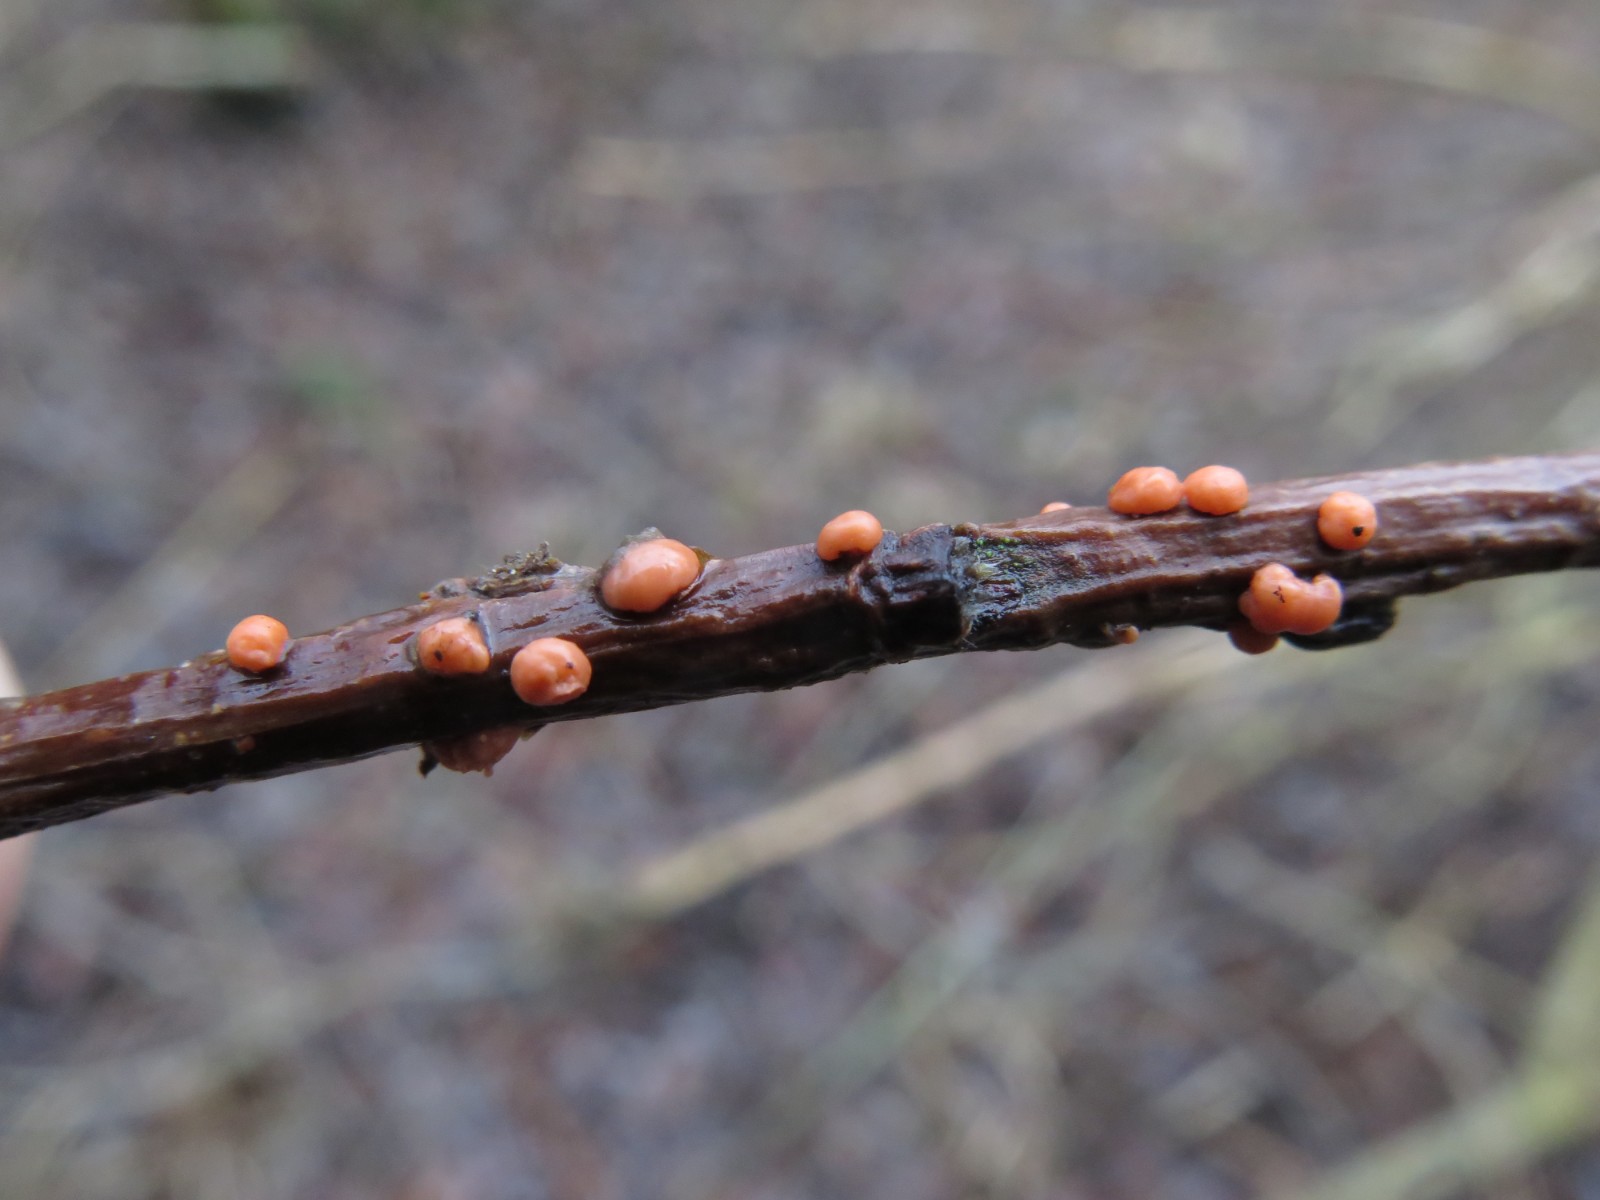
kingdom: Fungi
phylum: Ascomycota
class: Sordariomycetes
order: Hypocreales
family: Nectriaceae
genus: Nectria
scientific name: Nectria cinnabarina
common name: almindelig cinnobersvamp
